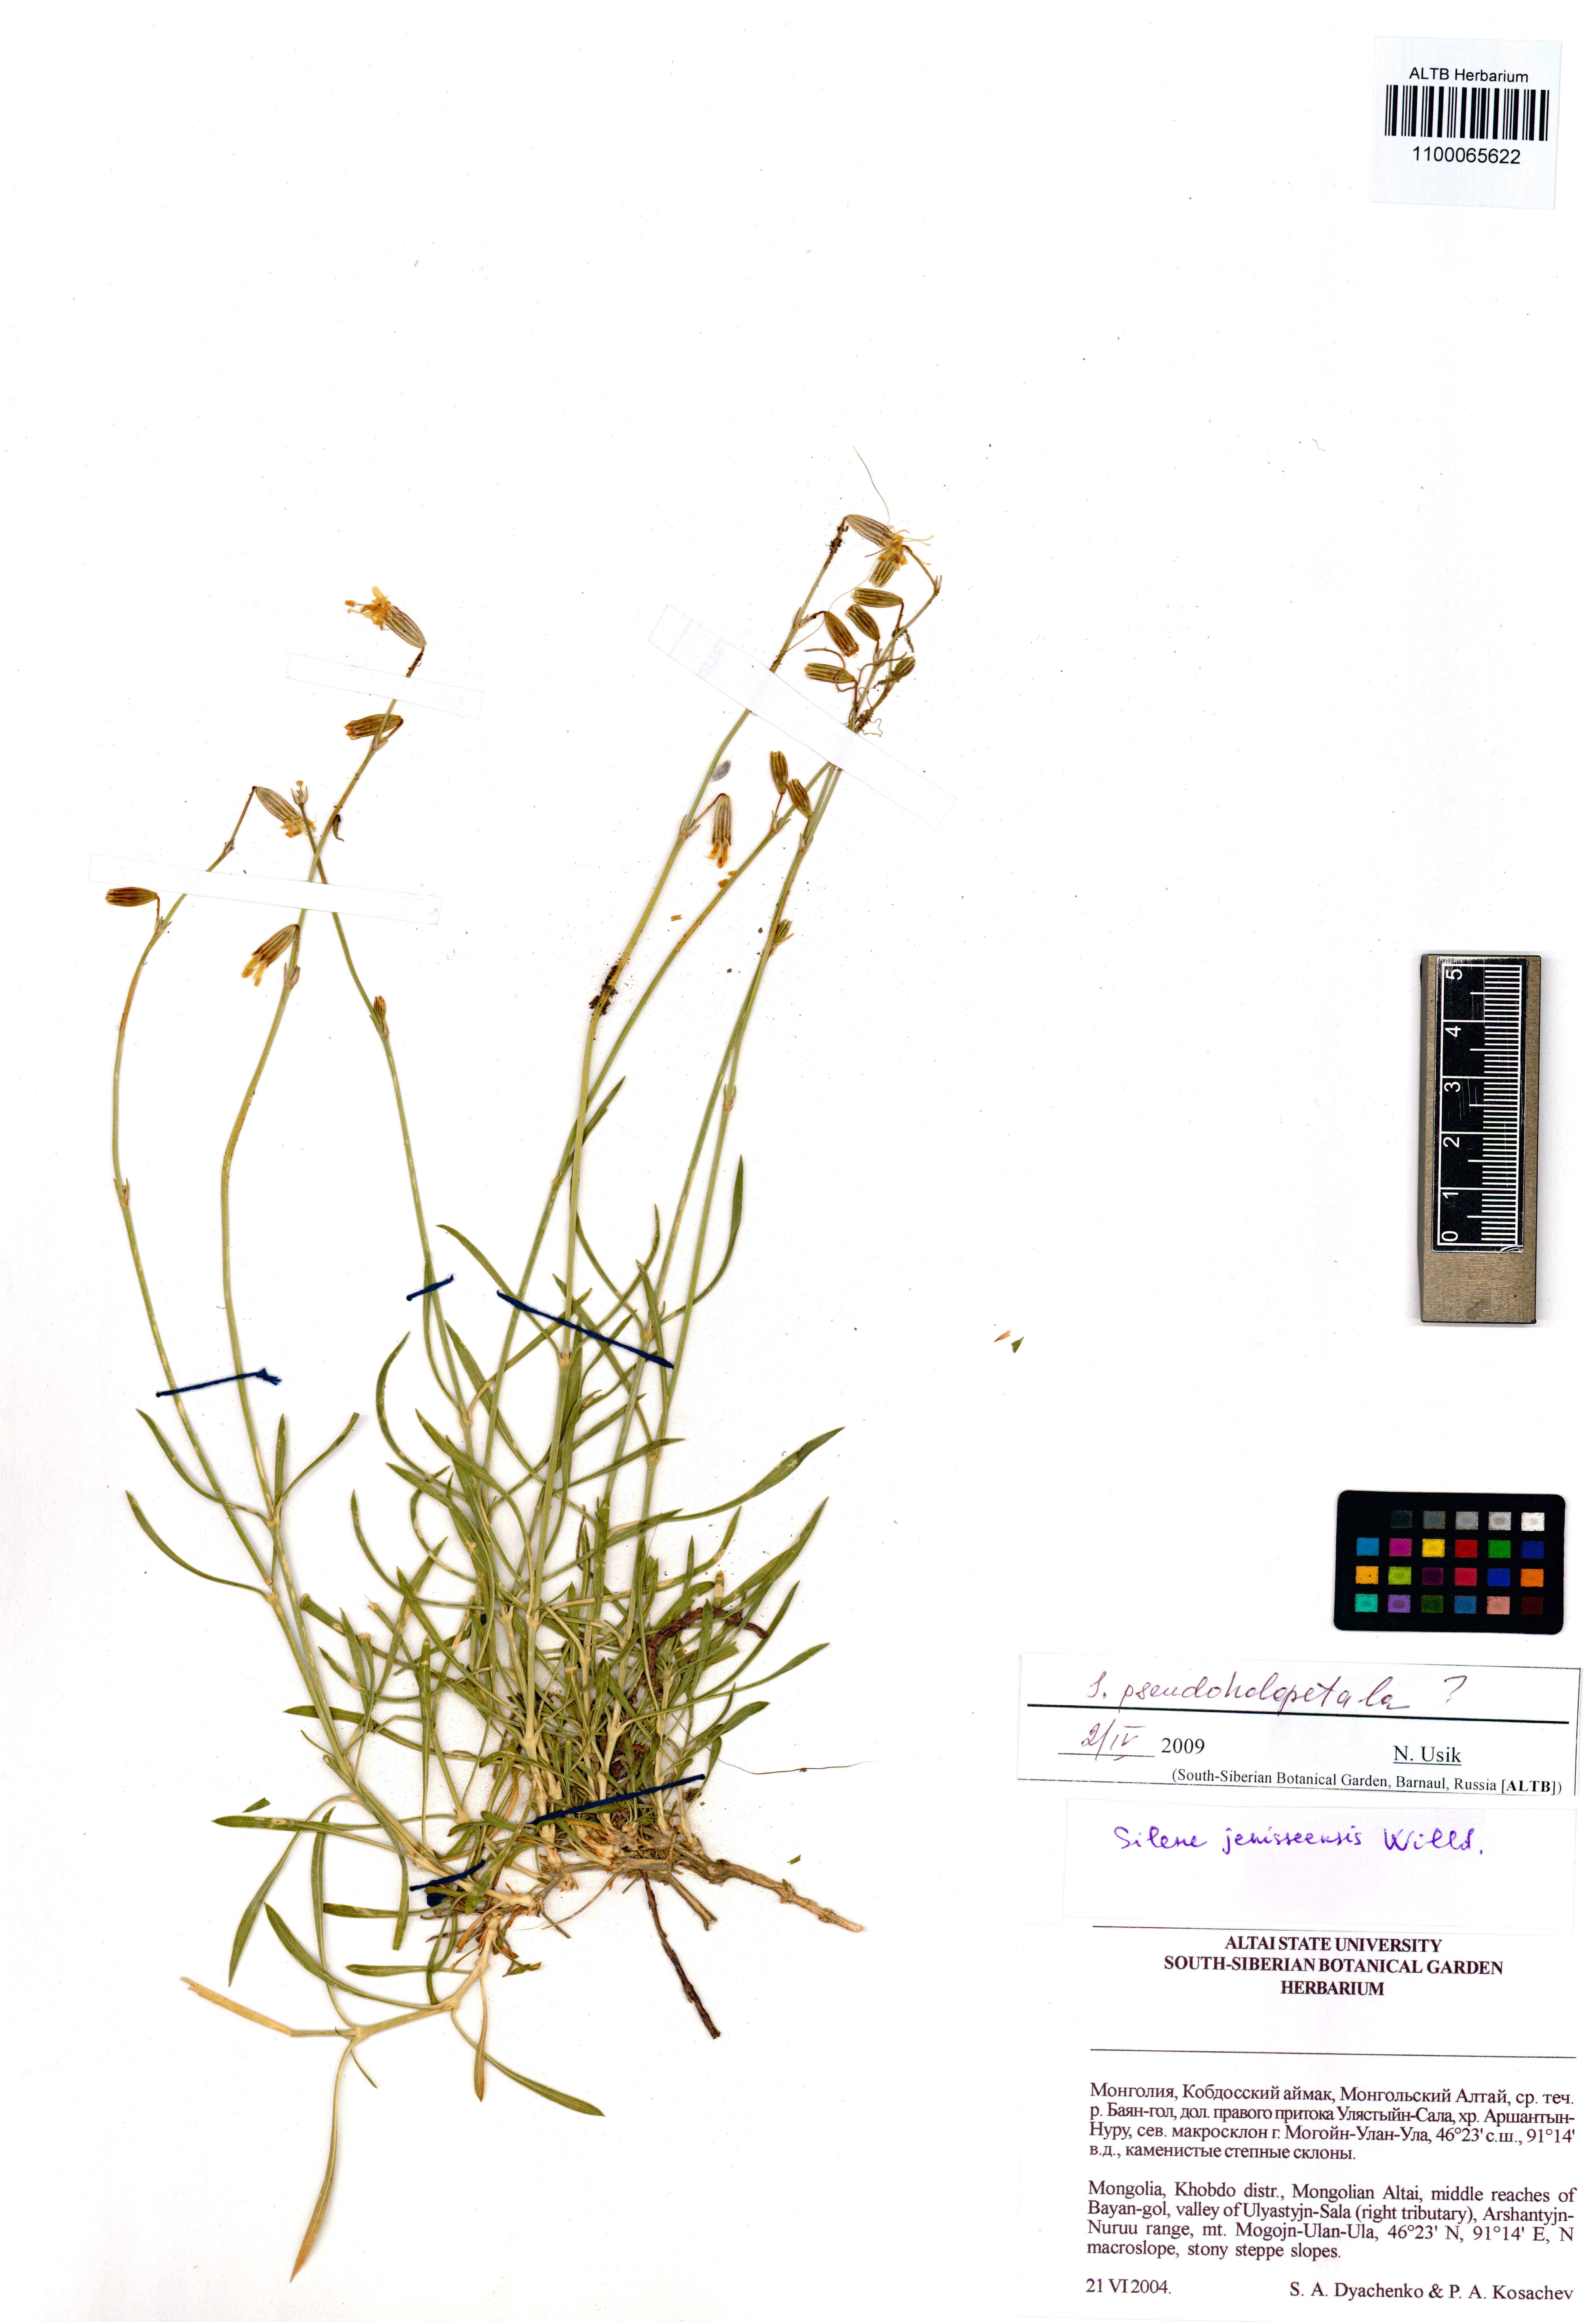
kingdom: Plantae
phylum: Tracheophyta
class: Magnoliopsida
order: Caryophyllales
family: Caryophyllaceae
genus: Silene
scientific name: Silene pseudoholopetala
